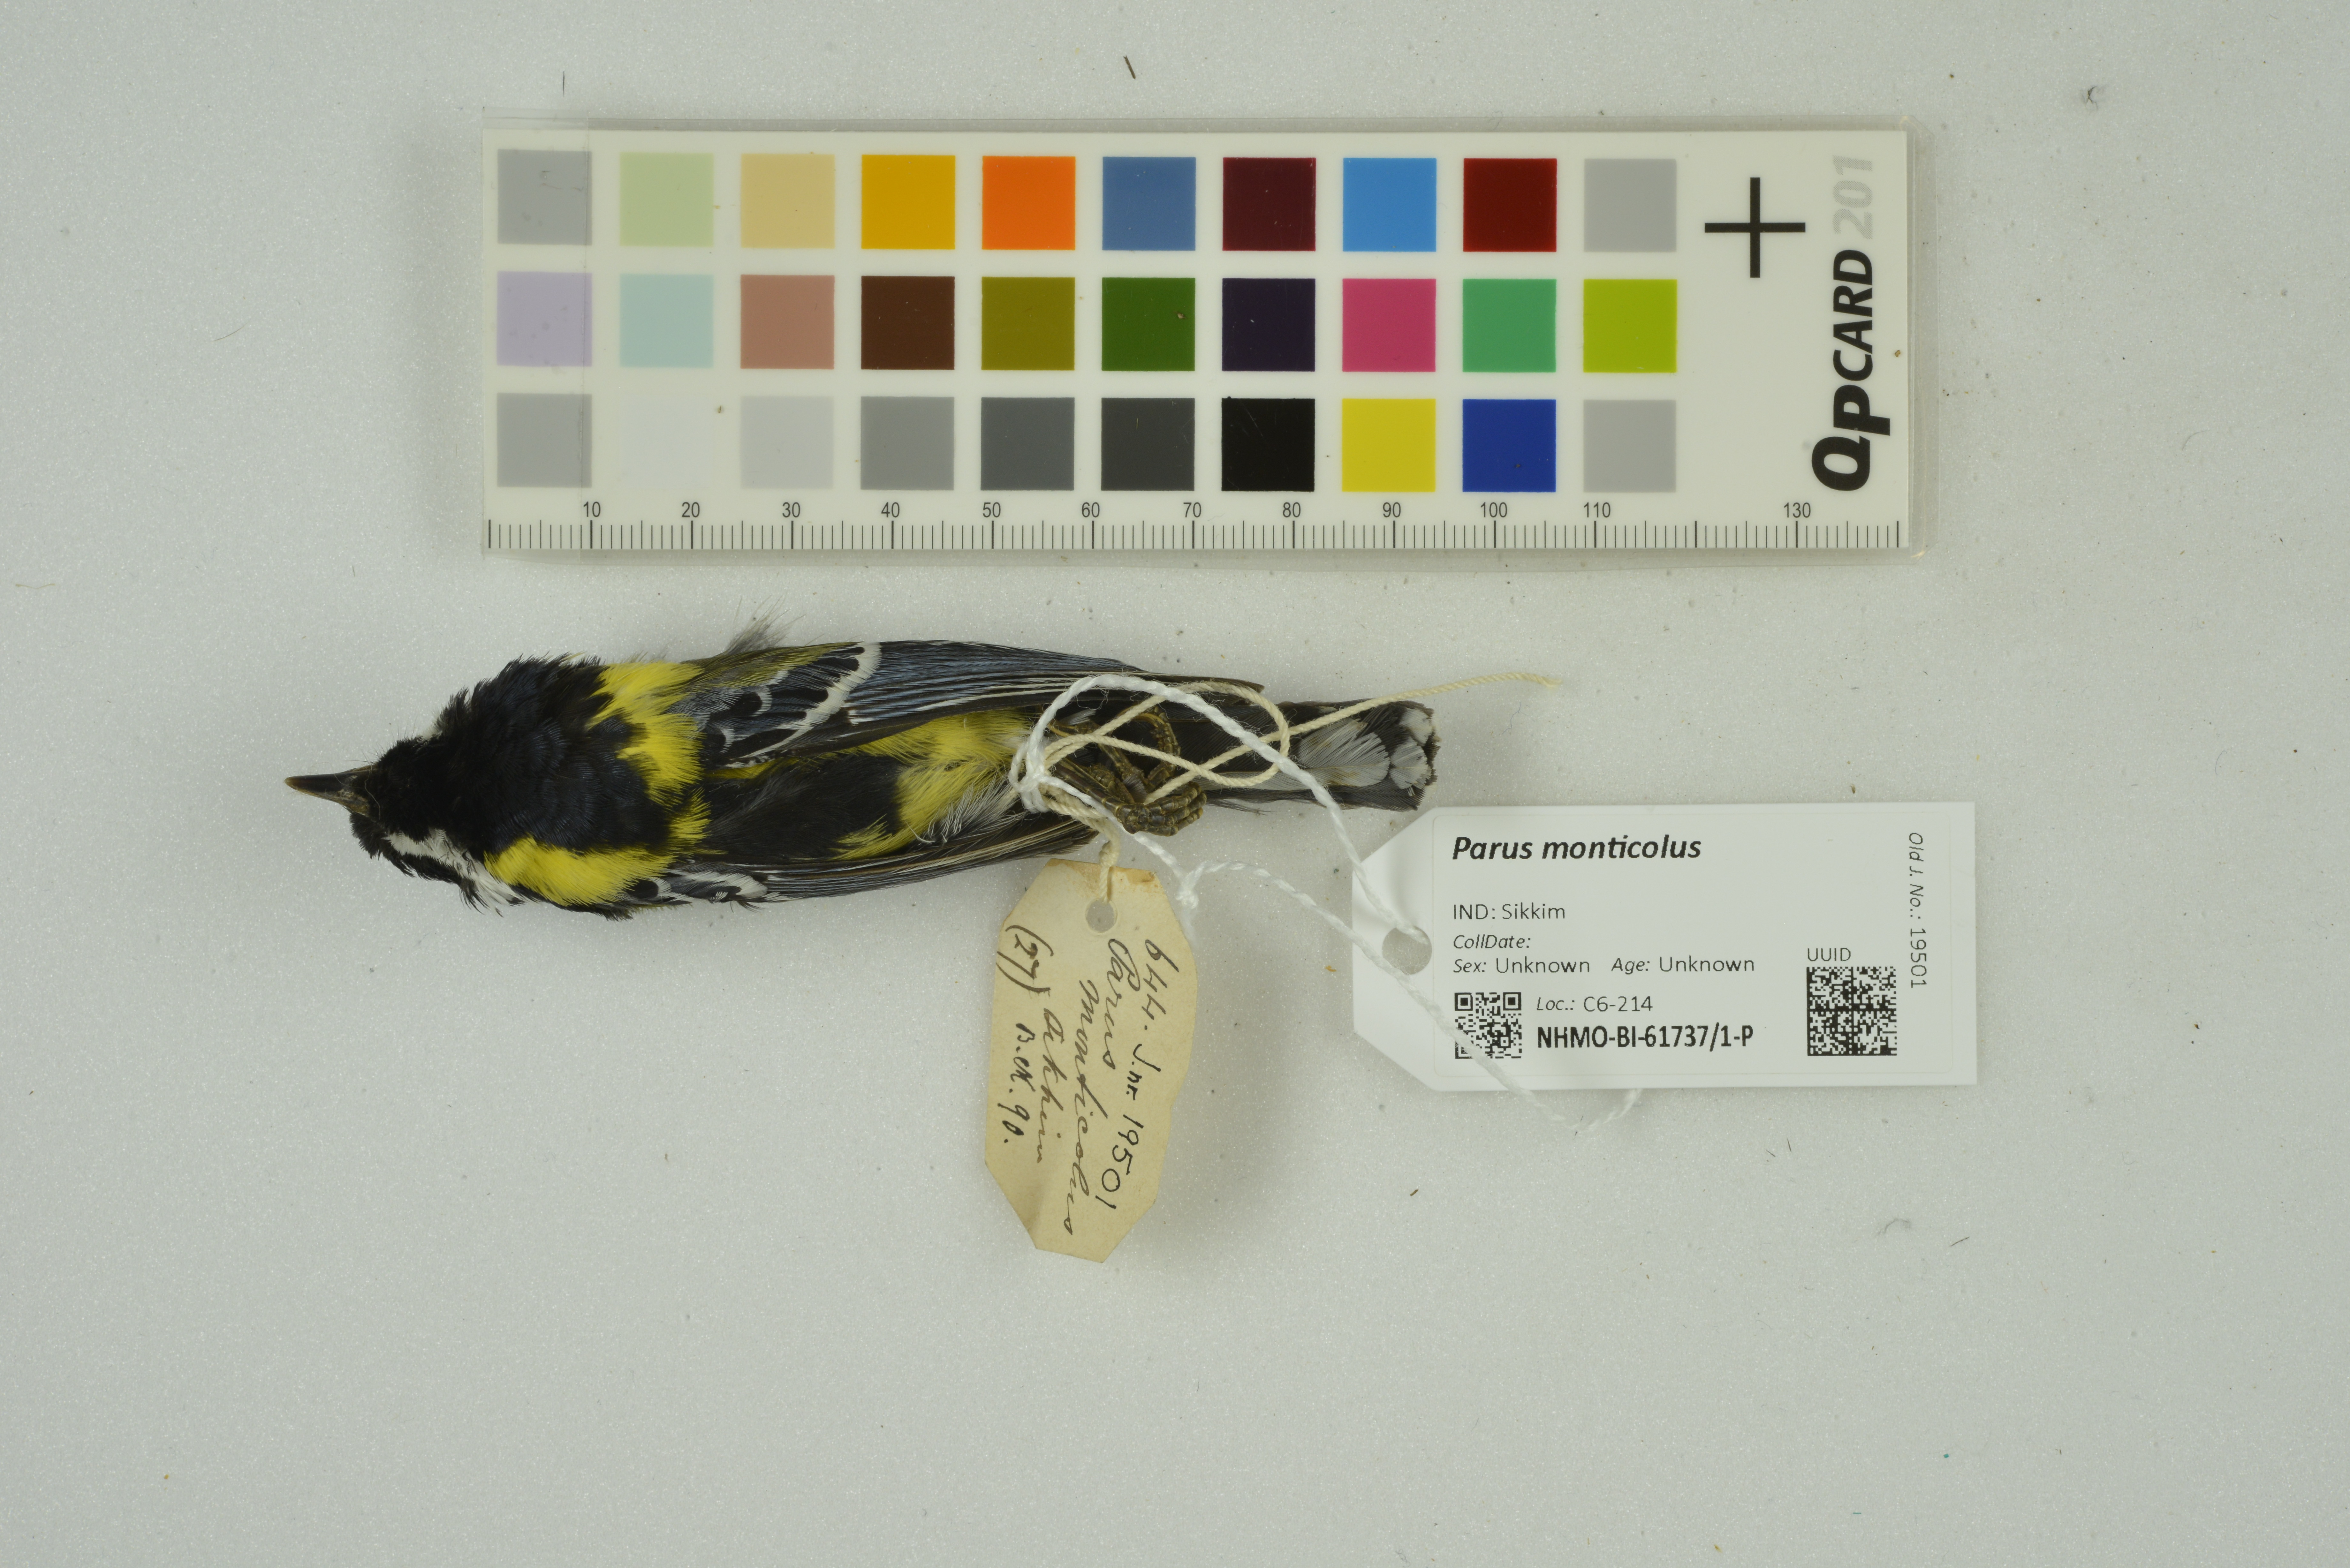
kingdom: Animalia
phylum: Chordata
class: Aves
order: Passeriformes
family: Paridae
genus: Parus
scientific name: Parus monticolus
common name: Green-backed tit
